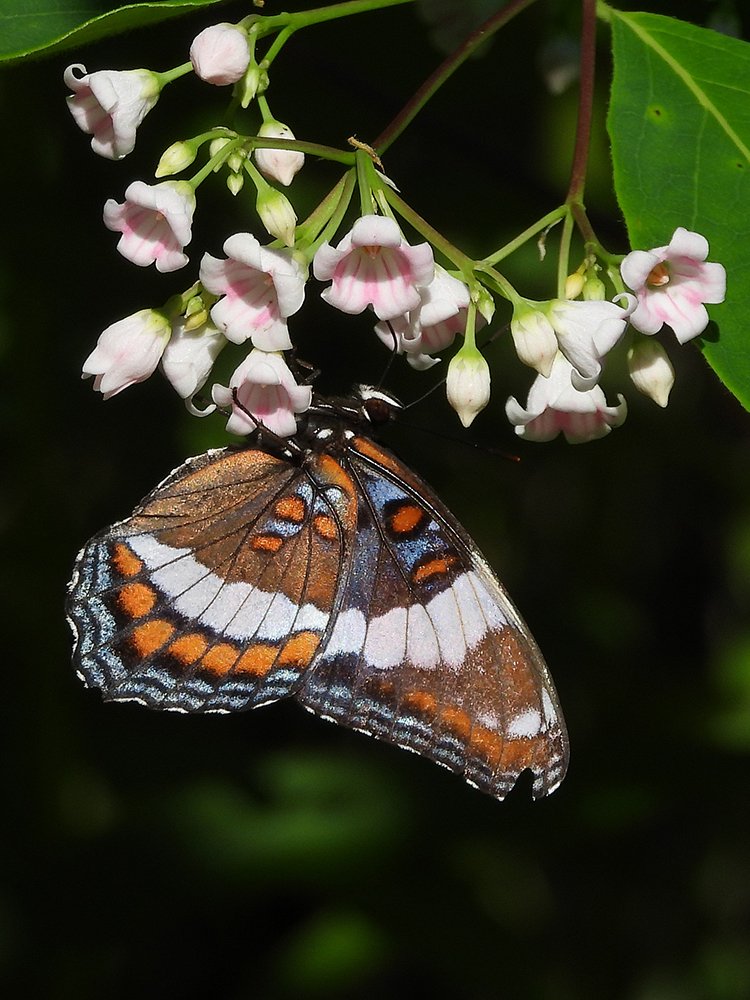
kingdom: Animalia
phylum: Arthropoda
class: Insecta
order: Lepidoptera
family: Nymphalidae
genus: Limenitis
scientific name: Limenitis arthemis
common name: Red-spotted Admiral
